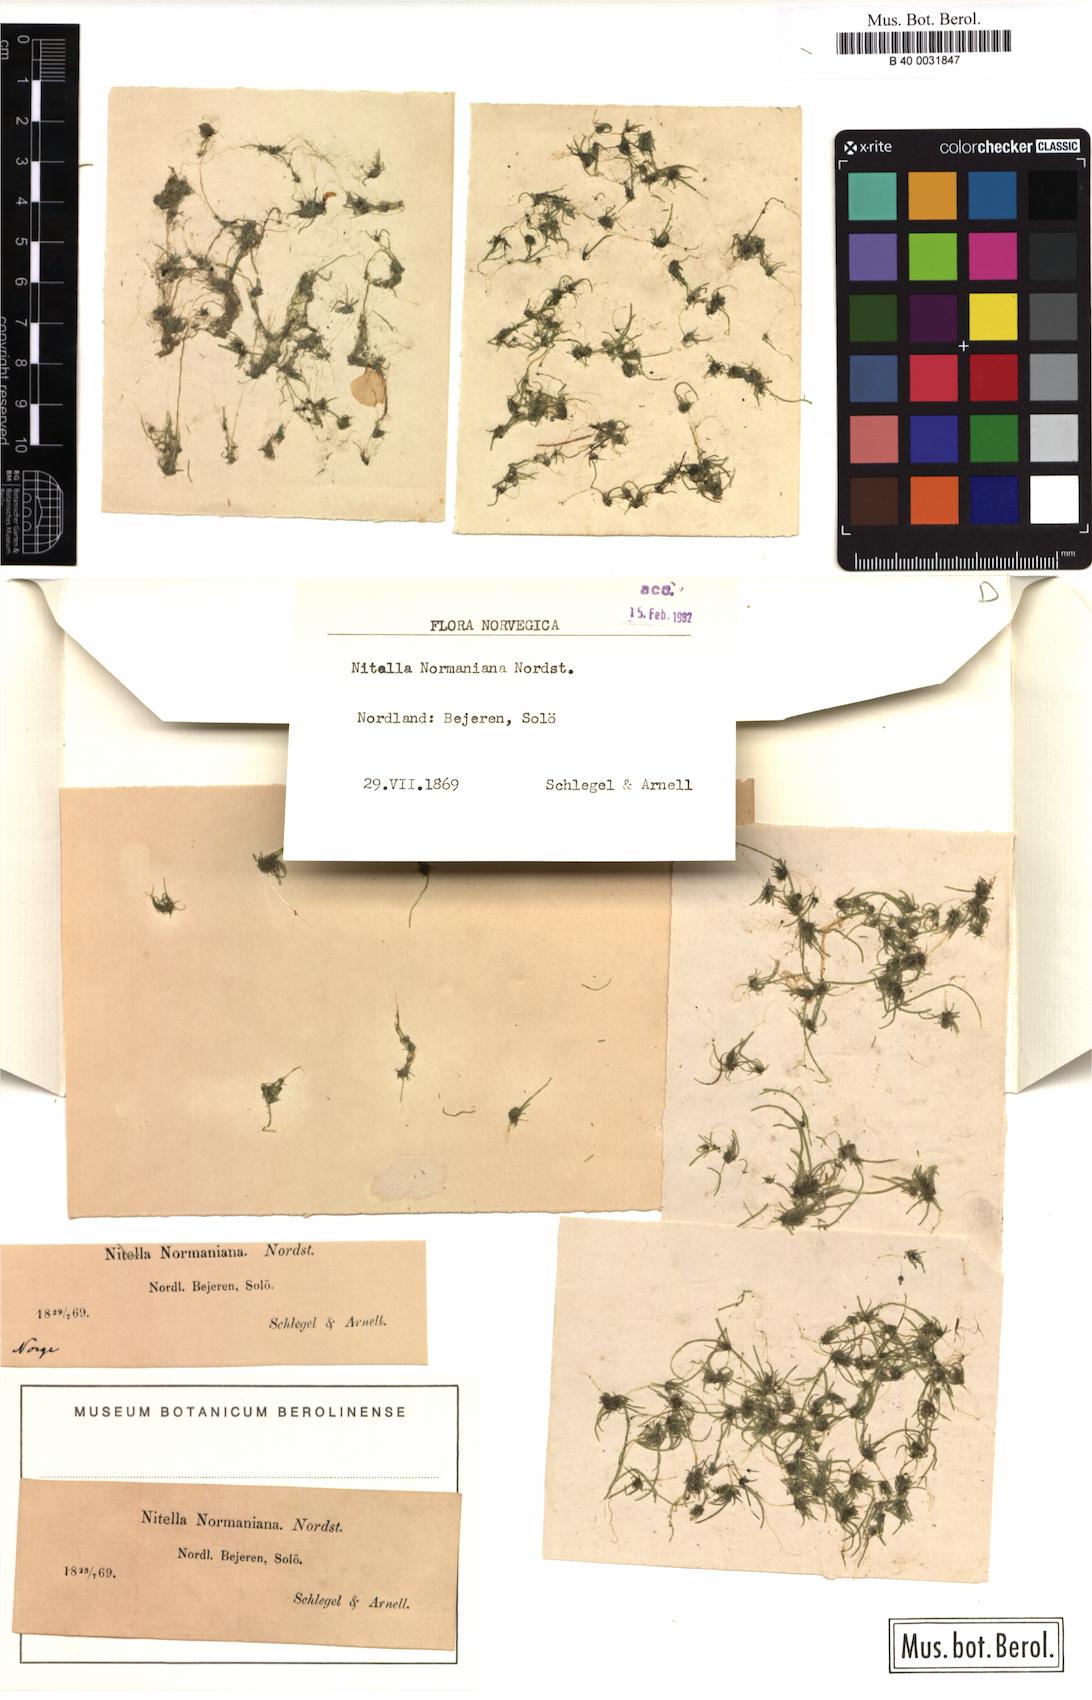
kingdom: Plantae
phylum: Charophyta
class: Charophyceae
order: Charales
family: Characeae
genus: Nitella
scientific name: Nitella
